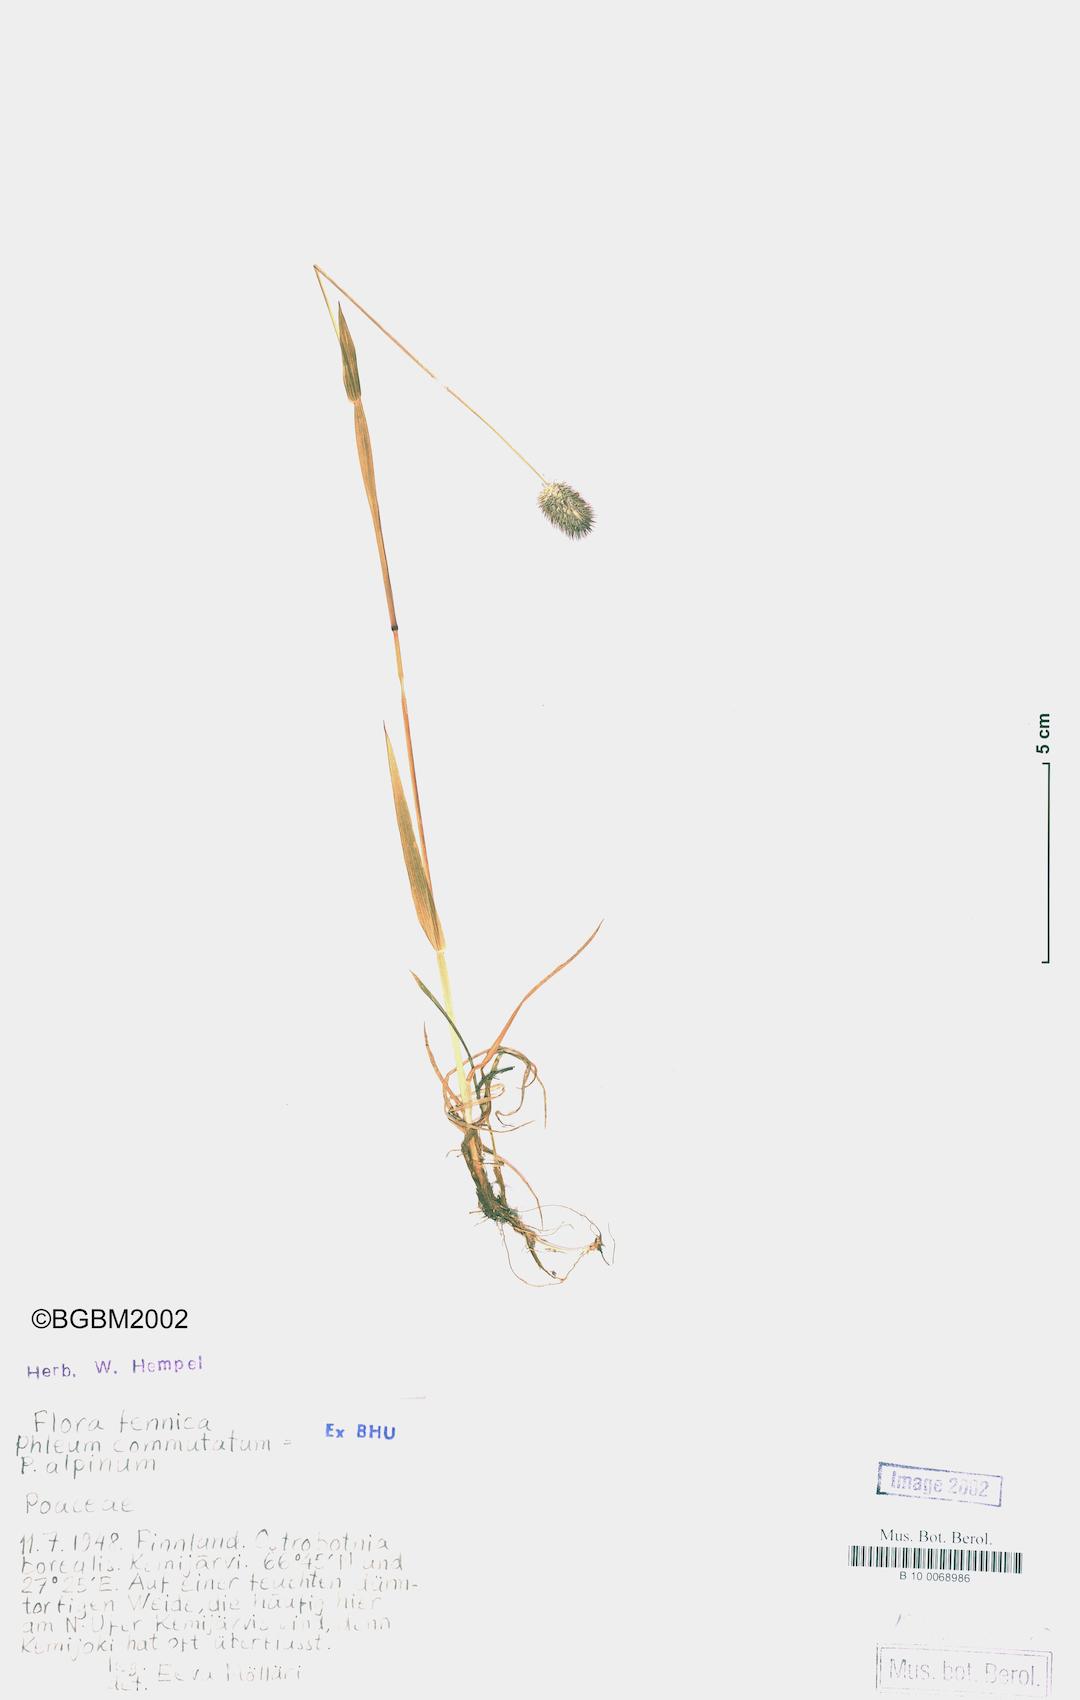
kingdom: Plantae
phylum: Tracheophyta
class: Liliopsida
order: Poales
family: Poaceae
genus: Phleum
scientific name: Phleum alpinum
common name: Alpine cat's-tail
